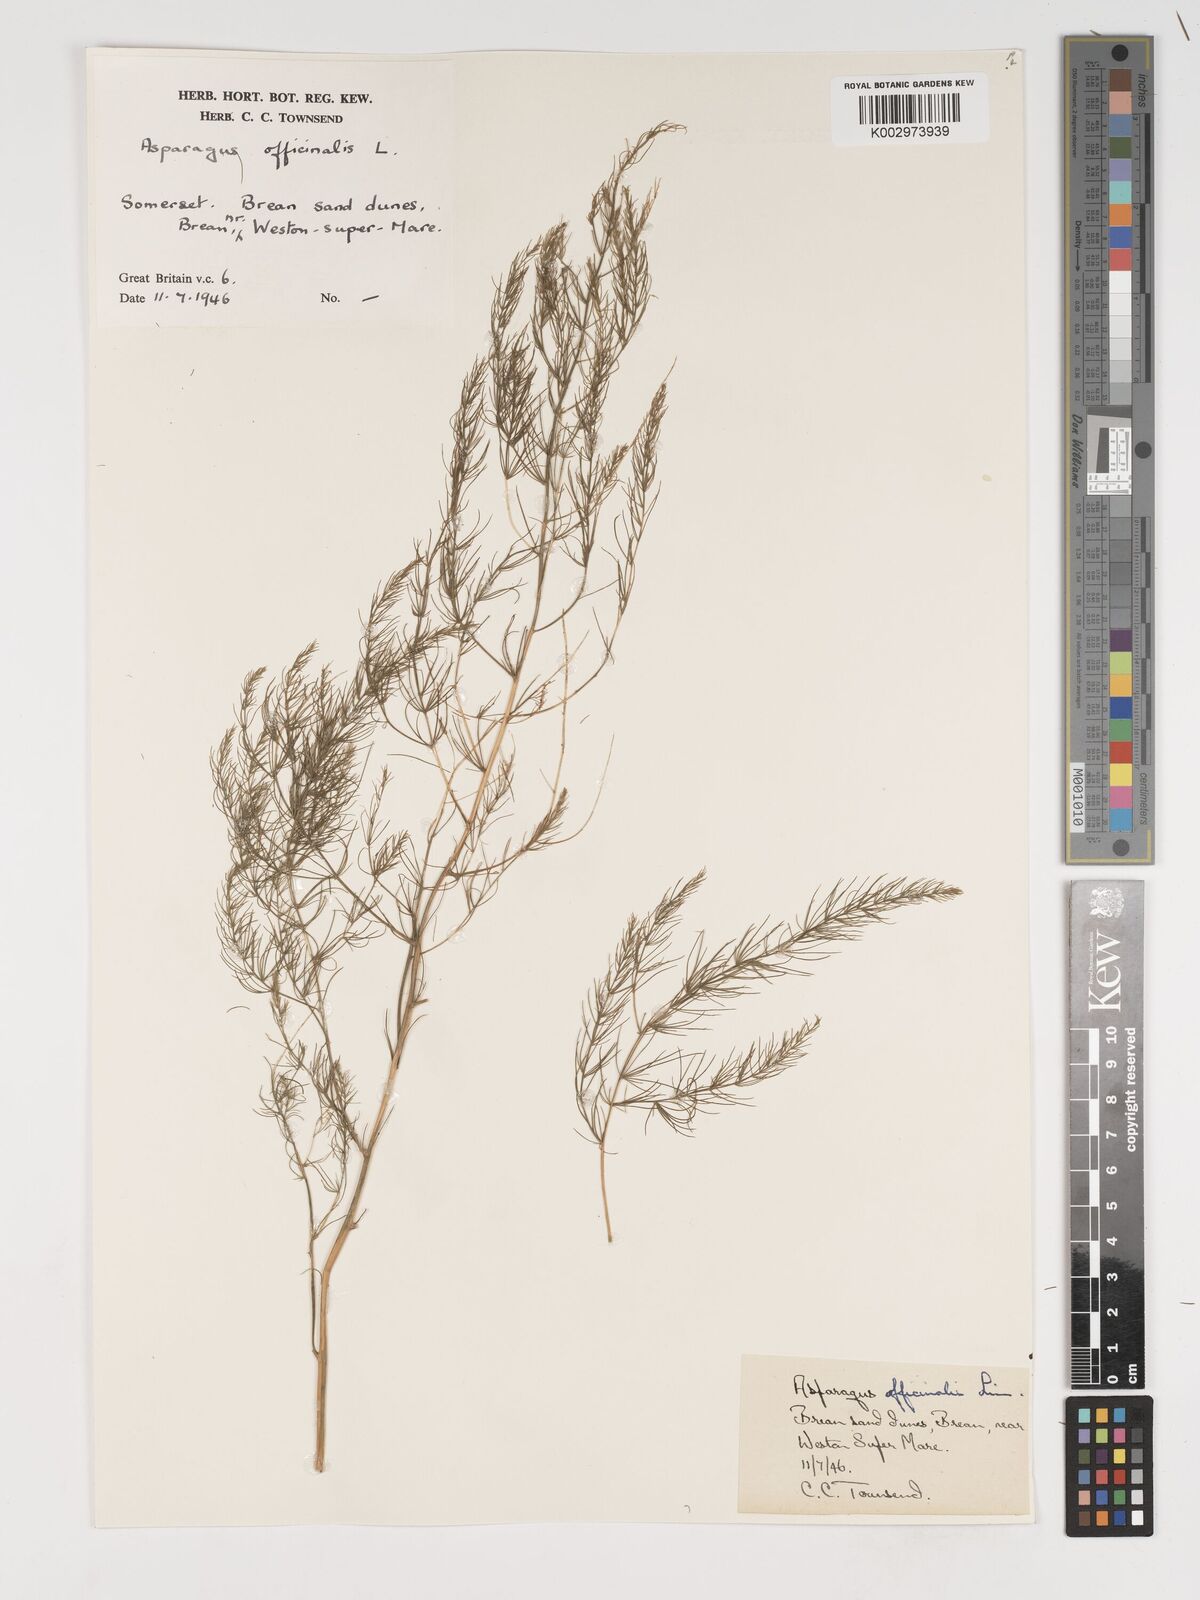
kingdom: Plantae
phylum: Tracheophyta
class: Liliopsida
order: Asparagales
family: Asparagaceae
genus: Asparagus
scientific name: Asparagus officinalis
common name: Garden asparagus
